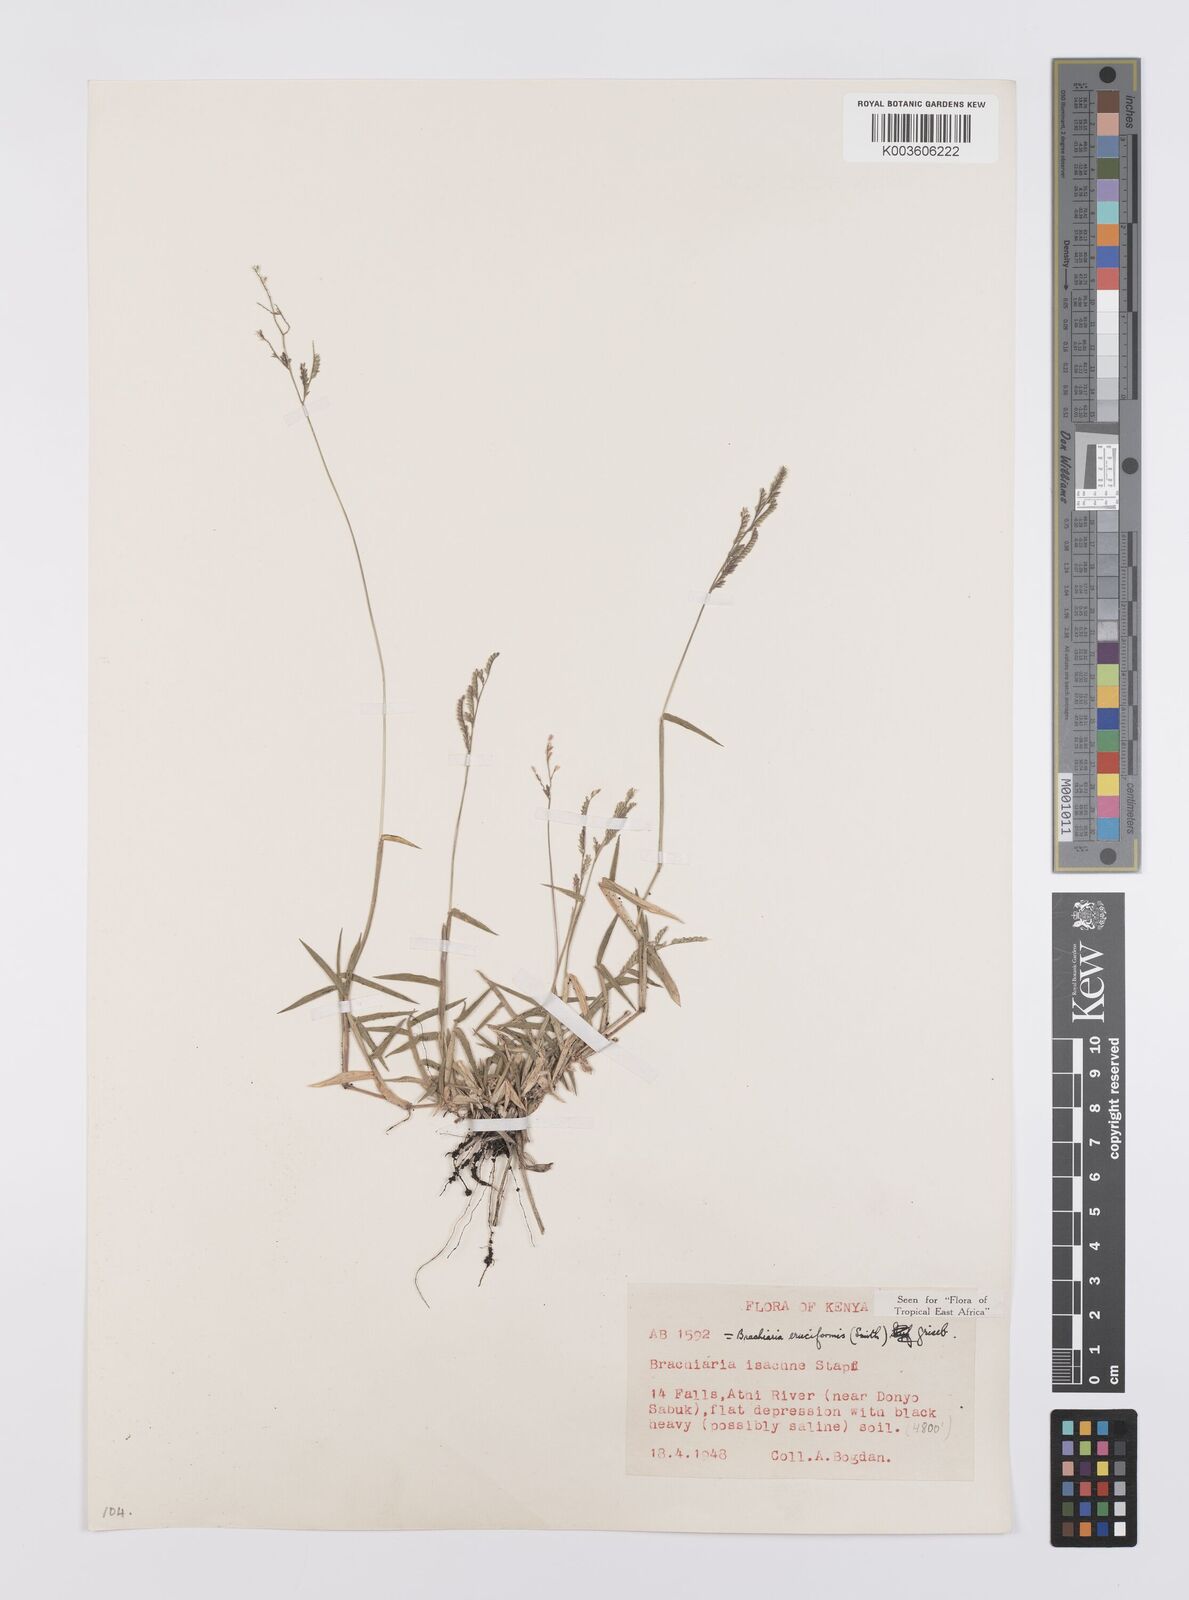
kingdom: Plantae
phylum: Tracheophyta
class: Liliopsida
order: Poales
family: Poaceae
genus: Moorochloa
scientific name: Moorochloa eruciformis
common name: Sweet signalgrass
